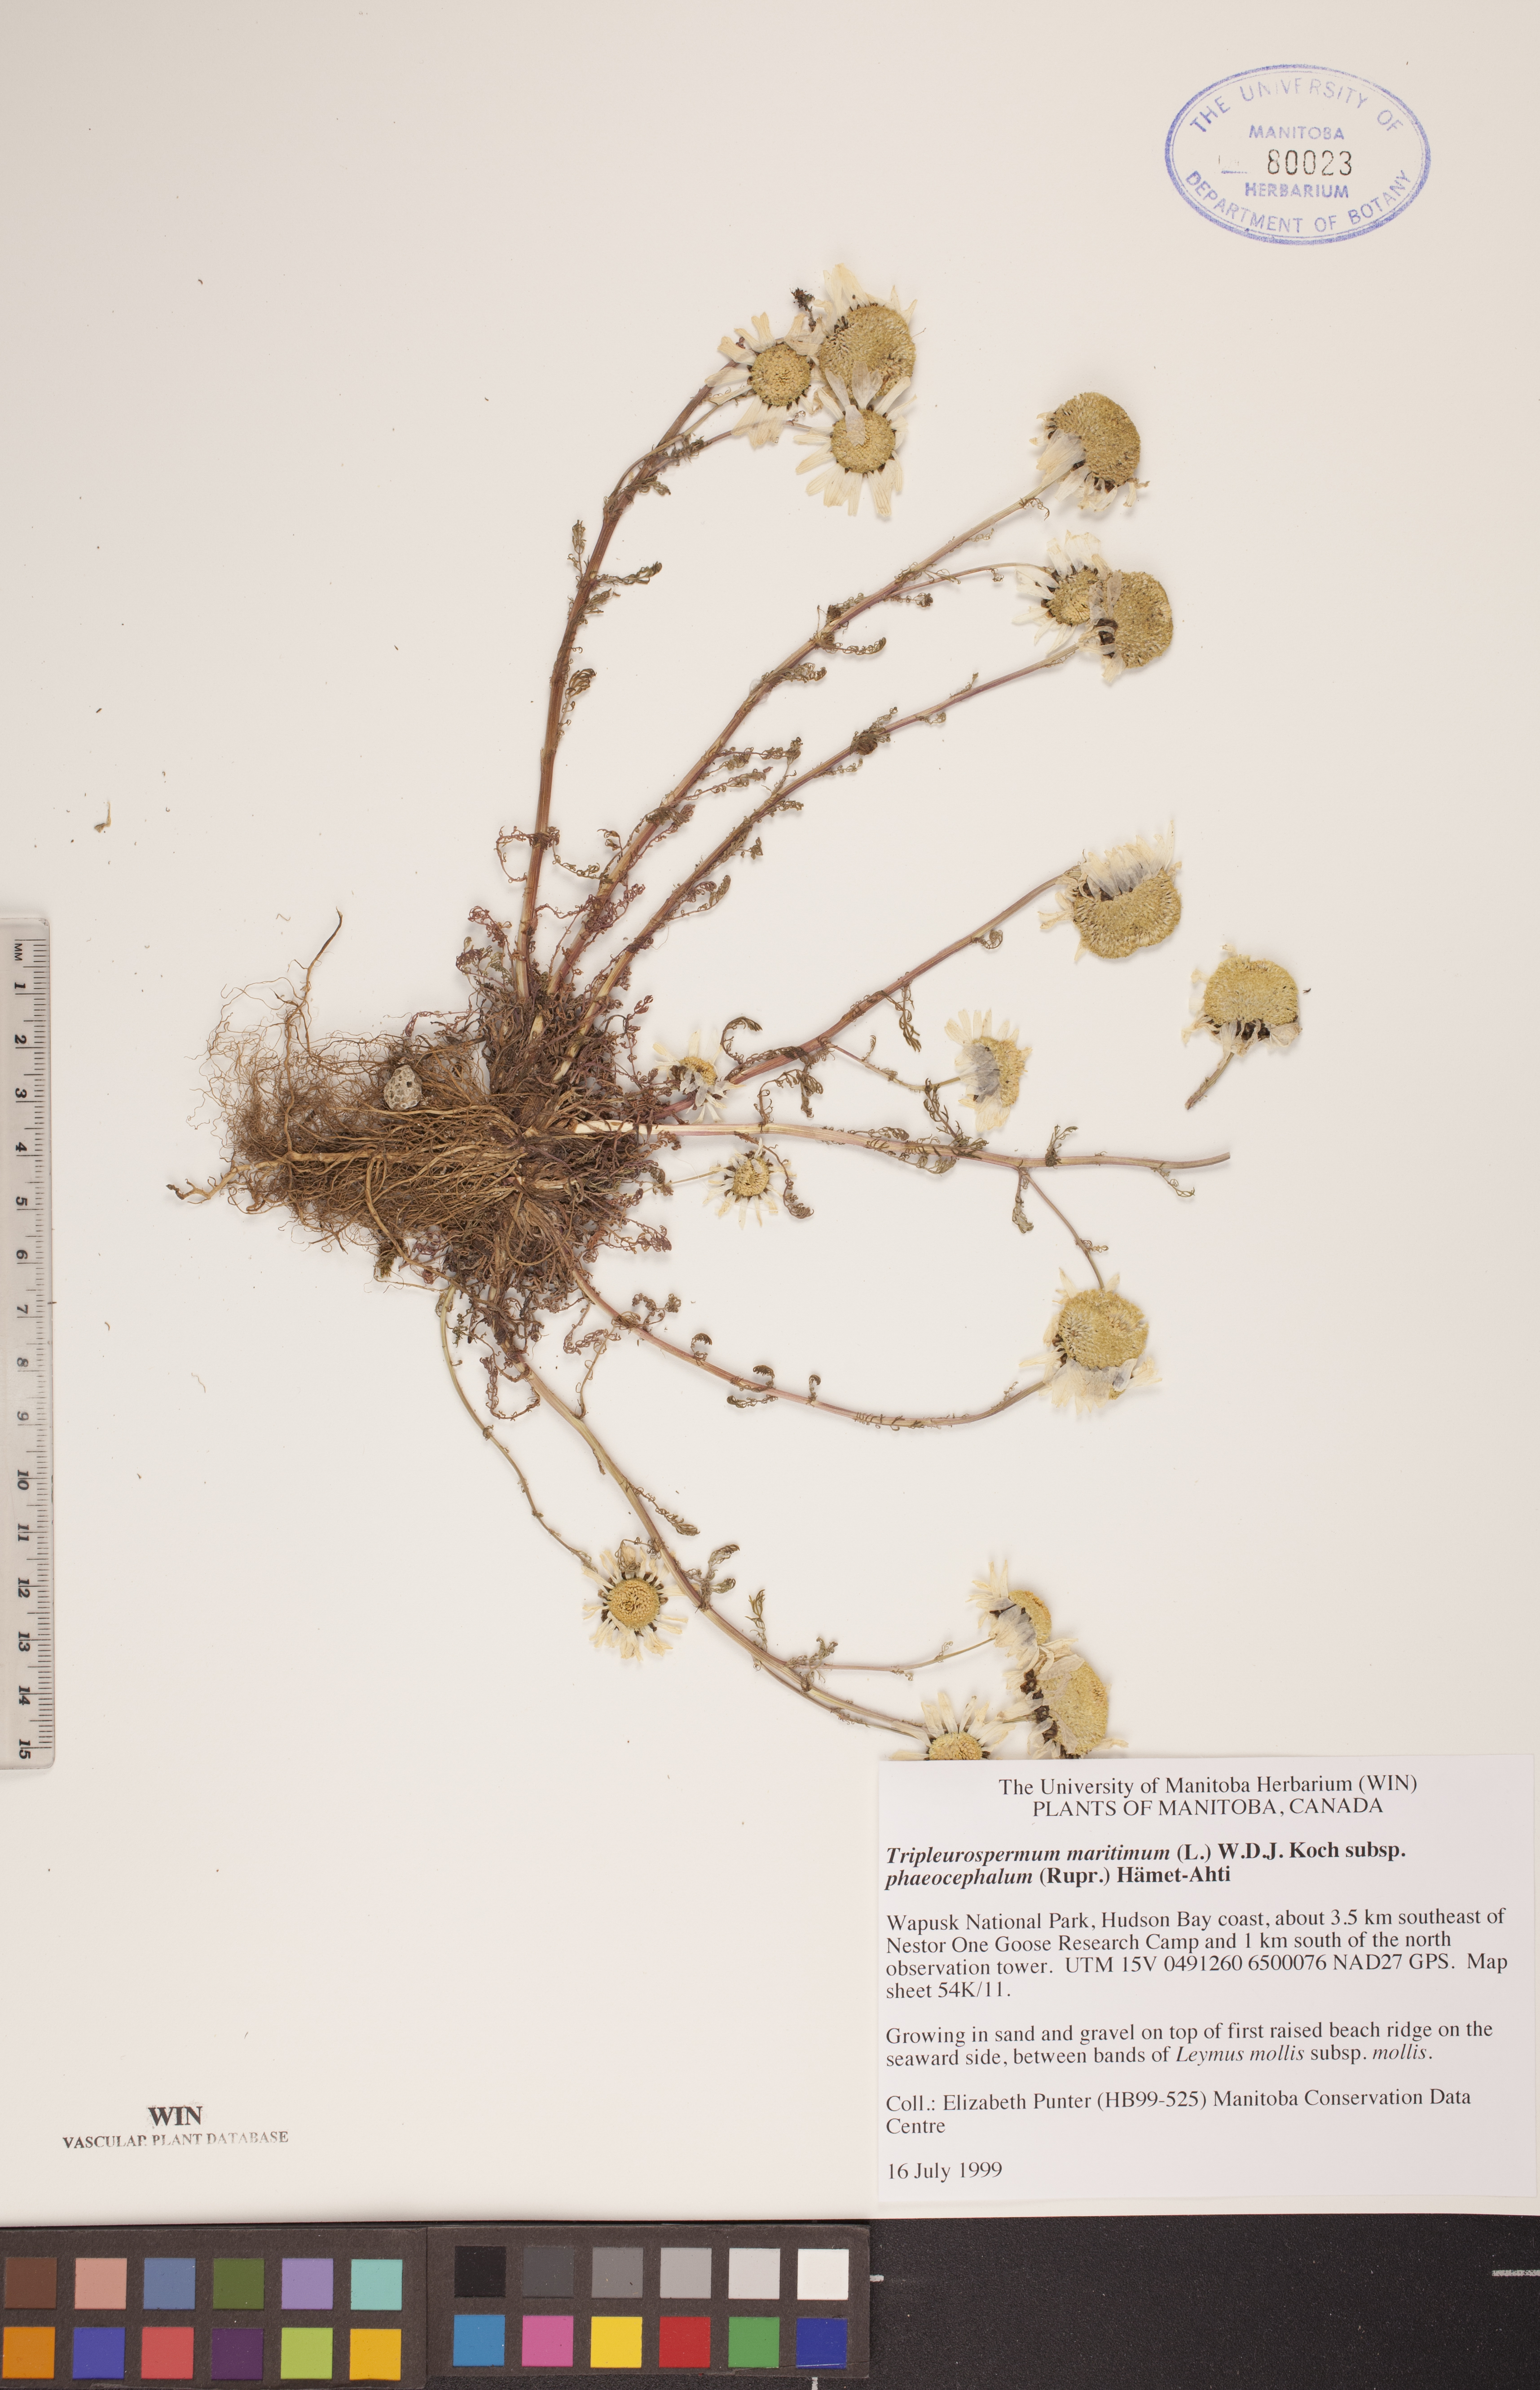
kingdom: Plantae
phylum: Tracheophyta
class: Magnoliopsida
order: Asterales
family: Asteraceae
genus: Tripleurospermum
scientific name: Tripleurospermum hookeri
